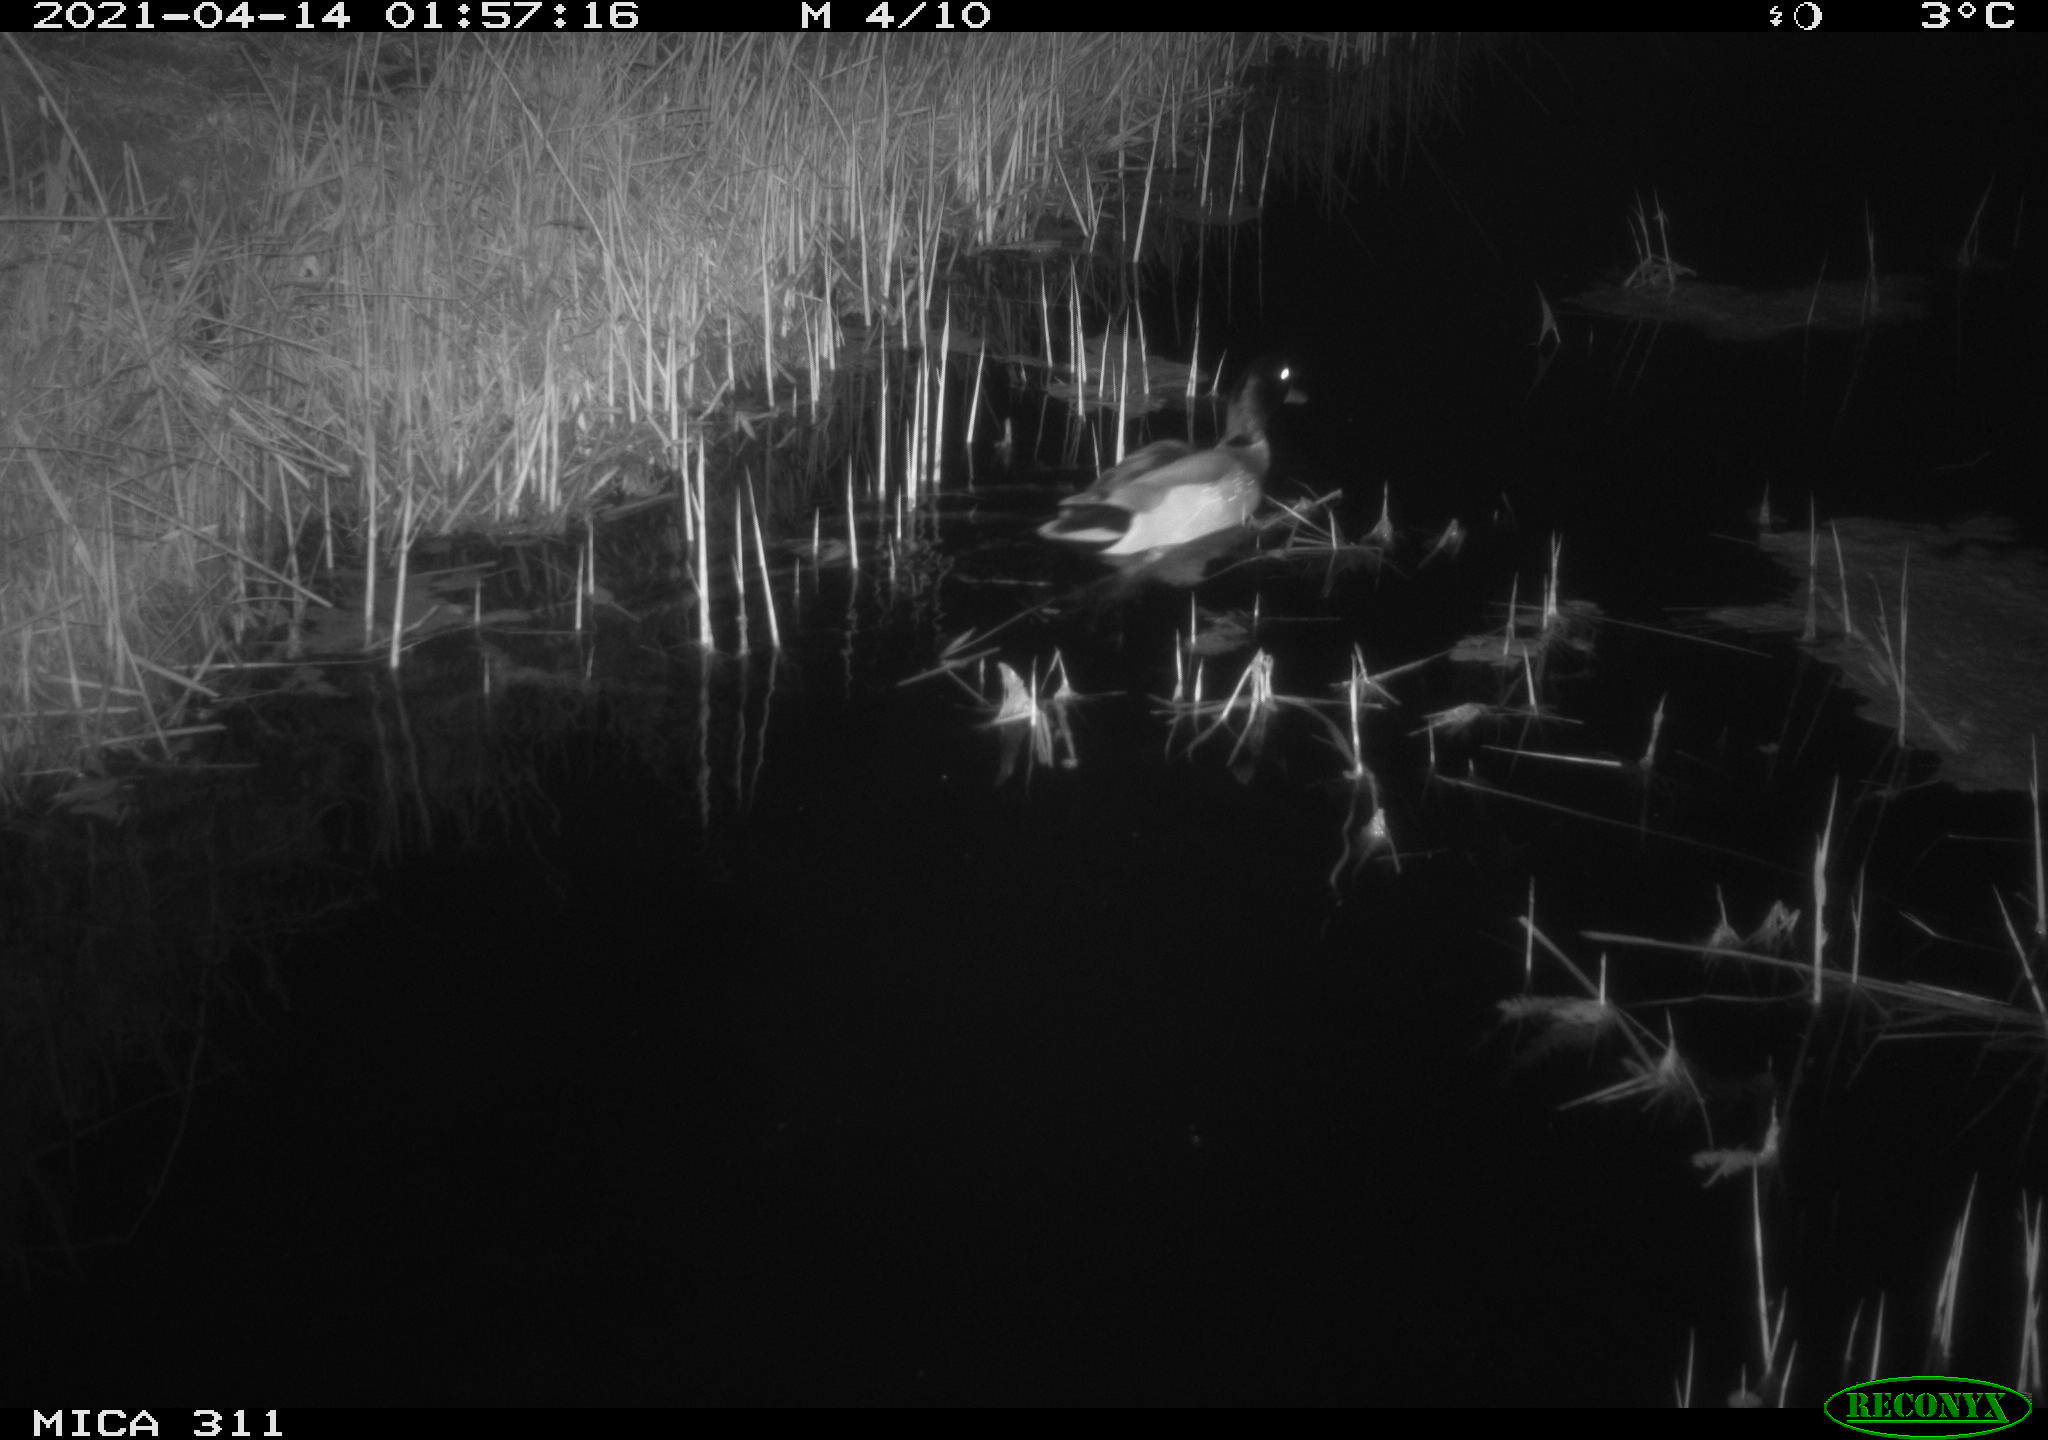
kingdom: Animalia
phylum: Chordata
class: Aves
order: Anseriformes
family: Anatidae
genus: Anas
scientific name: Anas platyrhynchos
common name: Mallard
